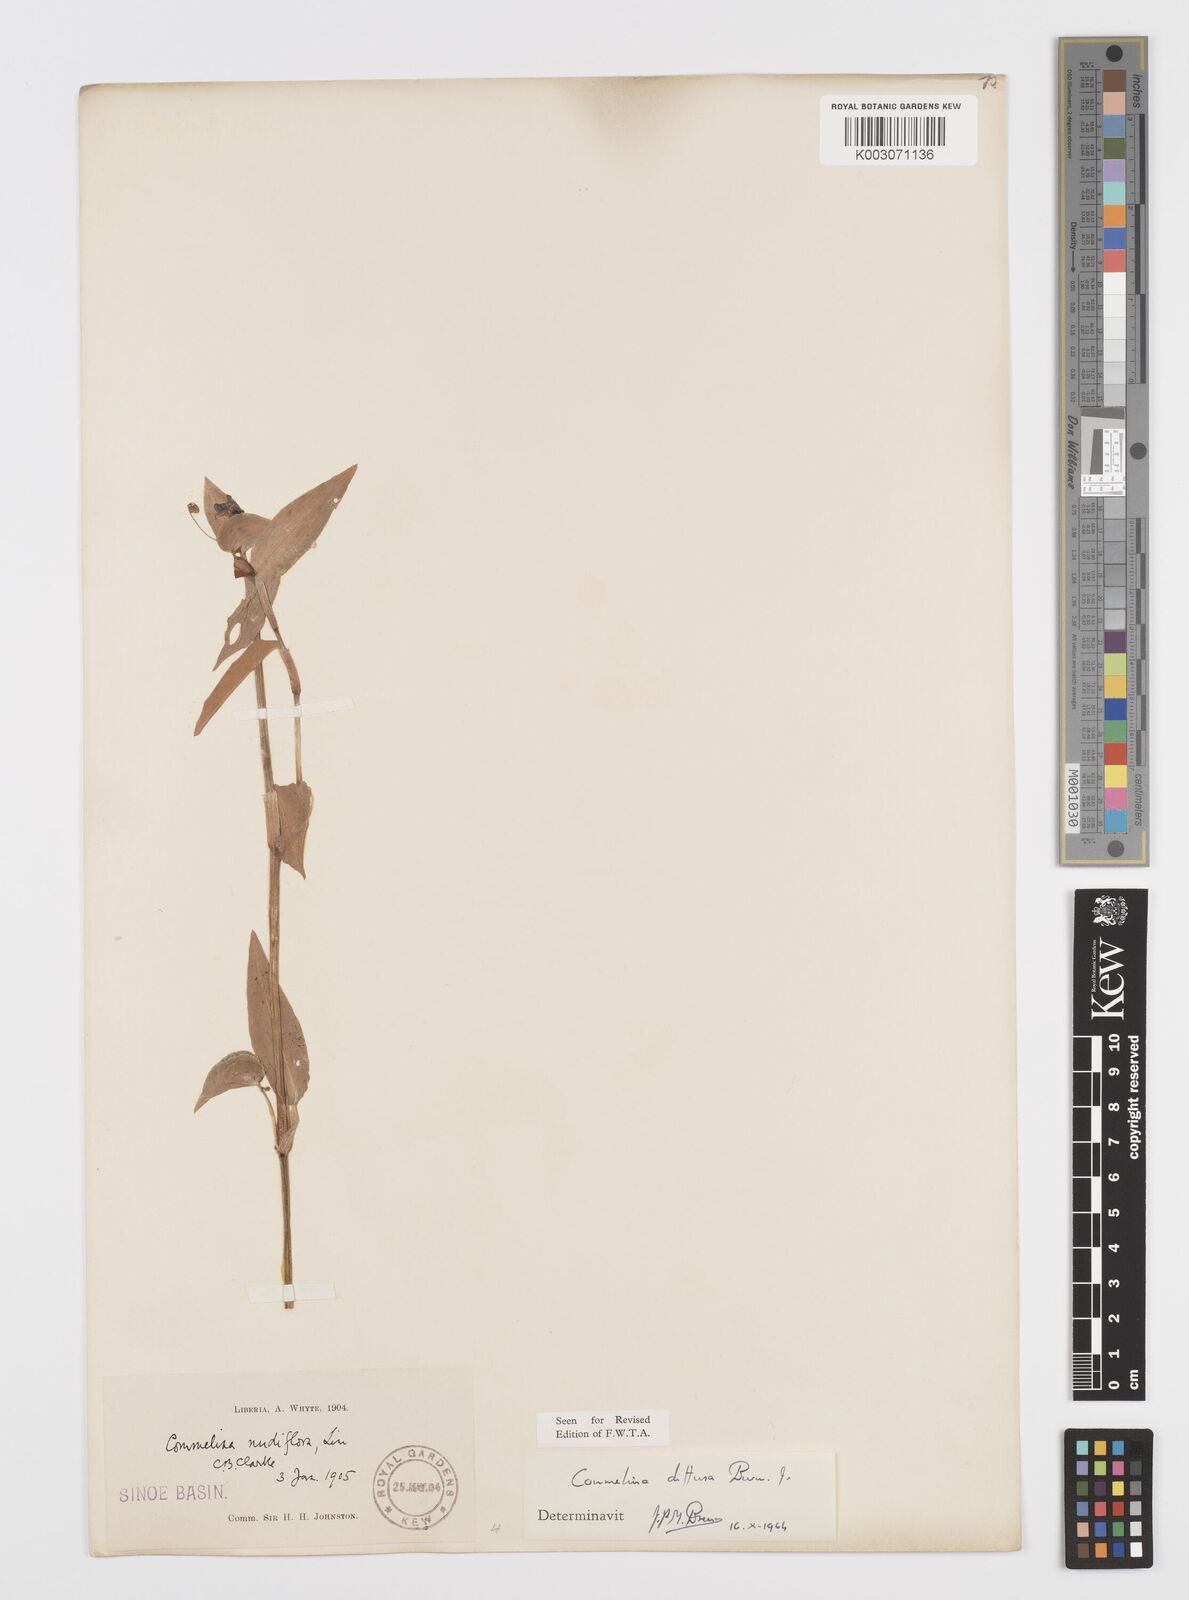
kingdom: Plantae
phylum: Tracheophyta
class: Liliopsida
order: Commelinales
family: Commelinaceae
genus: Commelina
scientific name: Commelina diffusa
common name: Climbing dayflower
